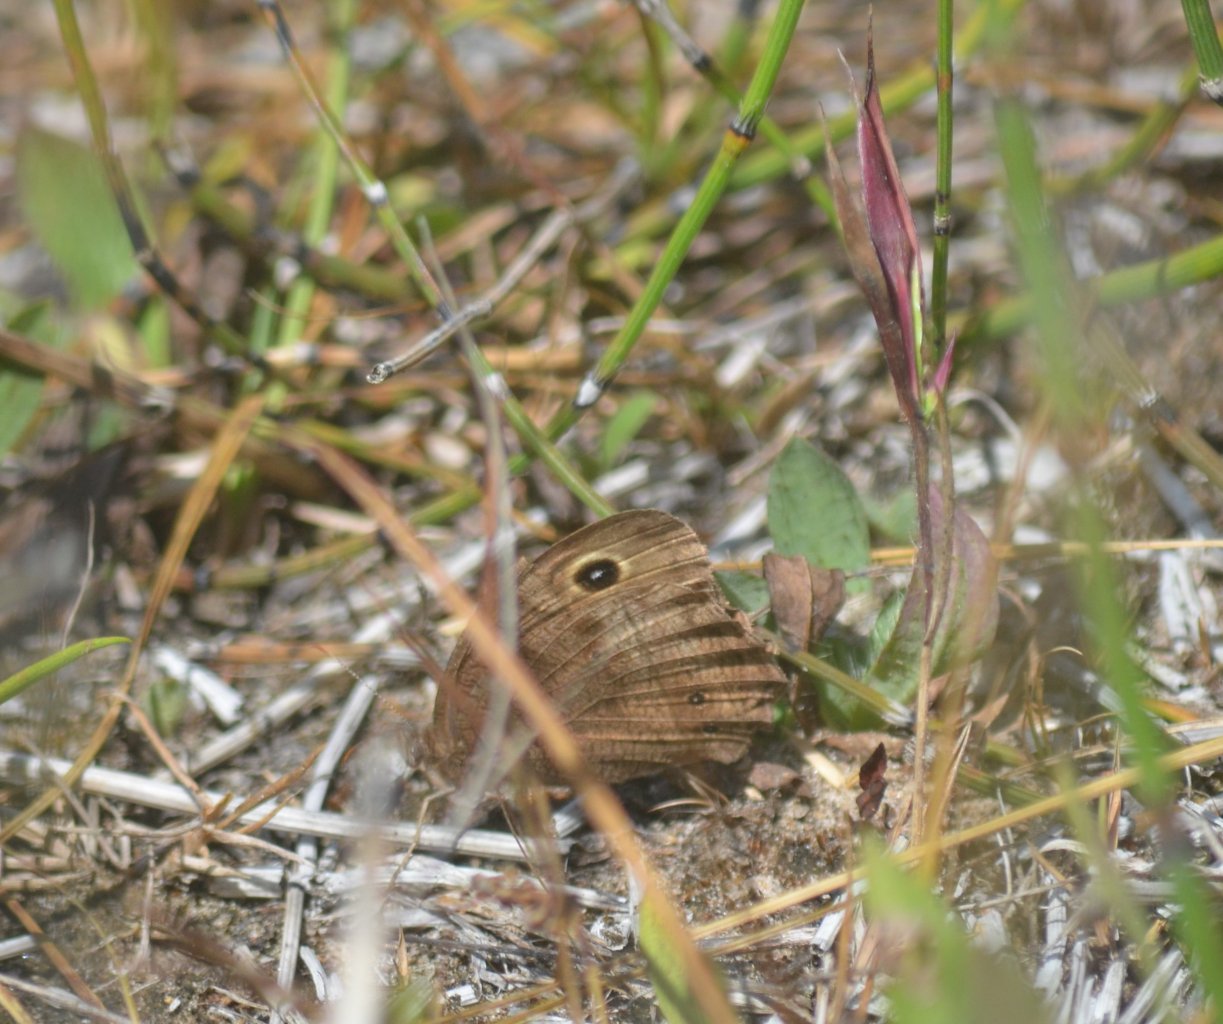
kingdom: Animalia
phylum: Arthropoda
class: Insecta
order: Lepidoptera
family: Nymphalidae
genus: Cercyonis
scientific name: Cercyonis pegala
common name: Common Wood-Nymph
